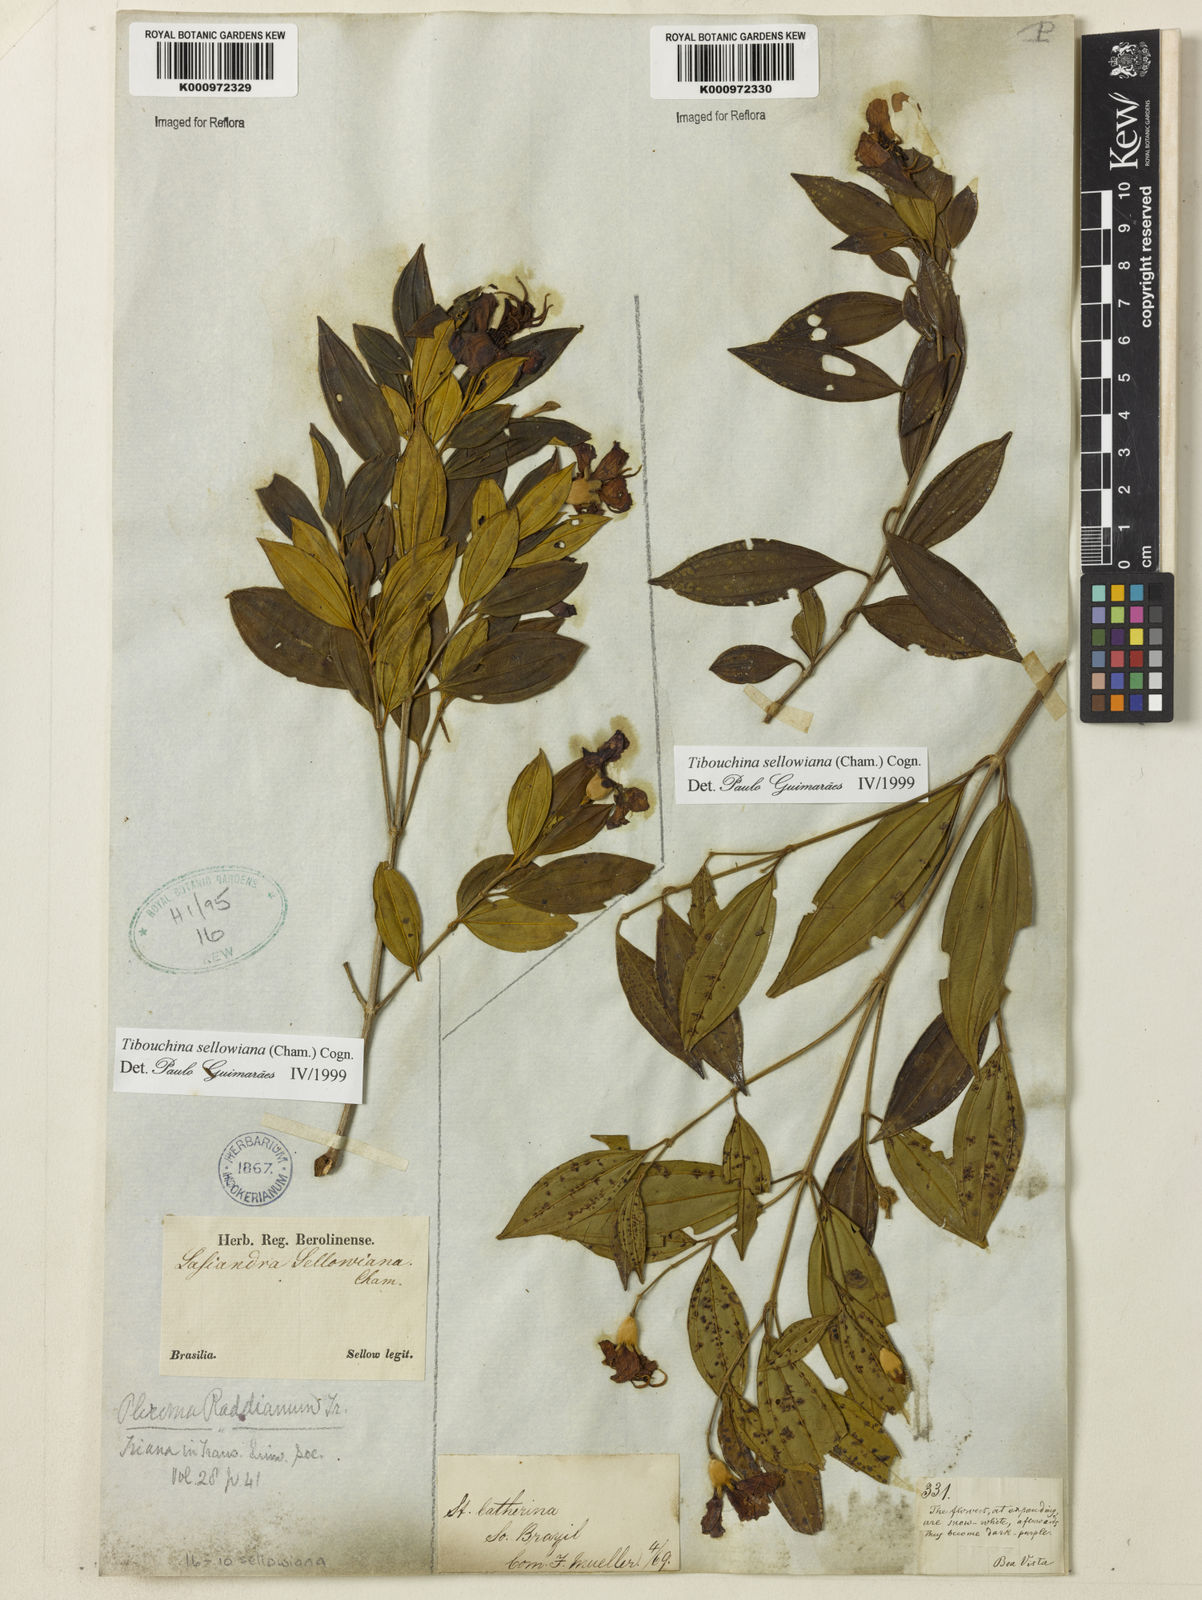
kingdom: Plantae
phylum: Tracheophyta
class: Magnoliopsida
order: Myrtales
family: Melastomataceae
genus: Pleroma
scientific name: Pleroma sellowianum
